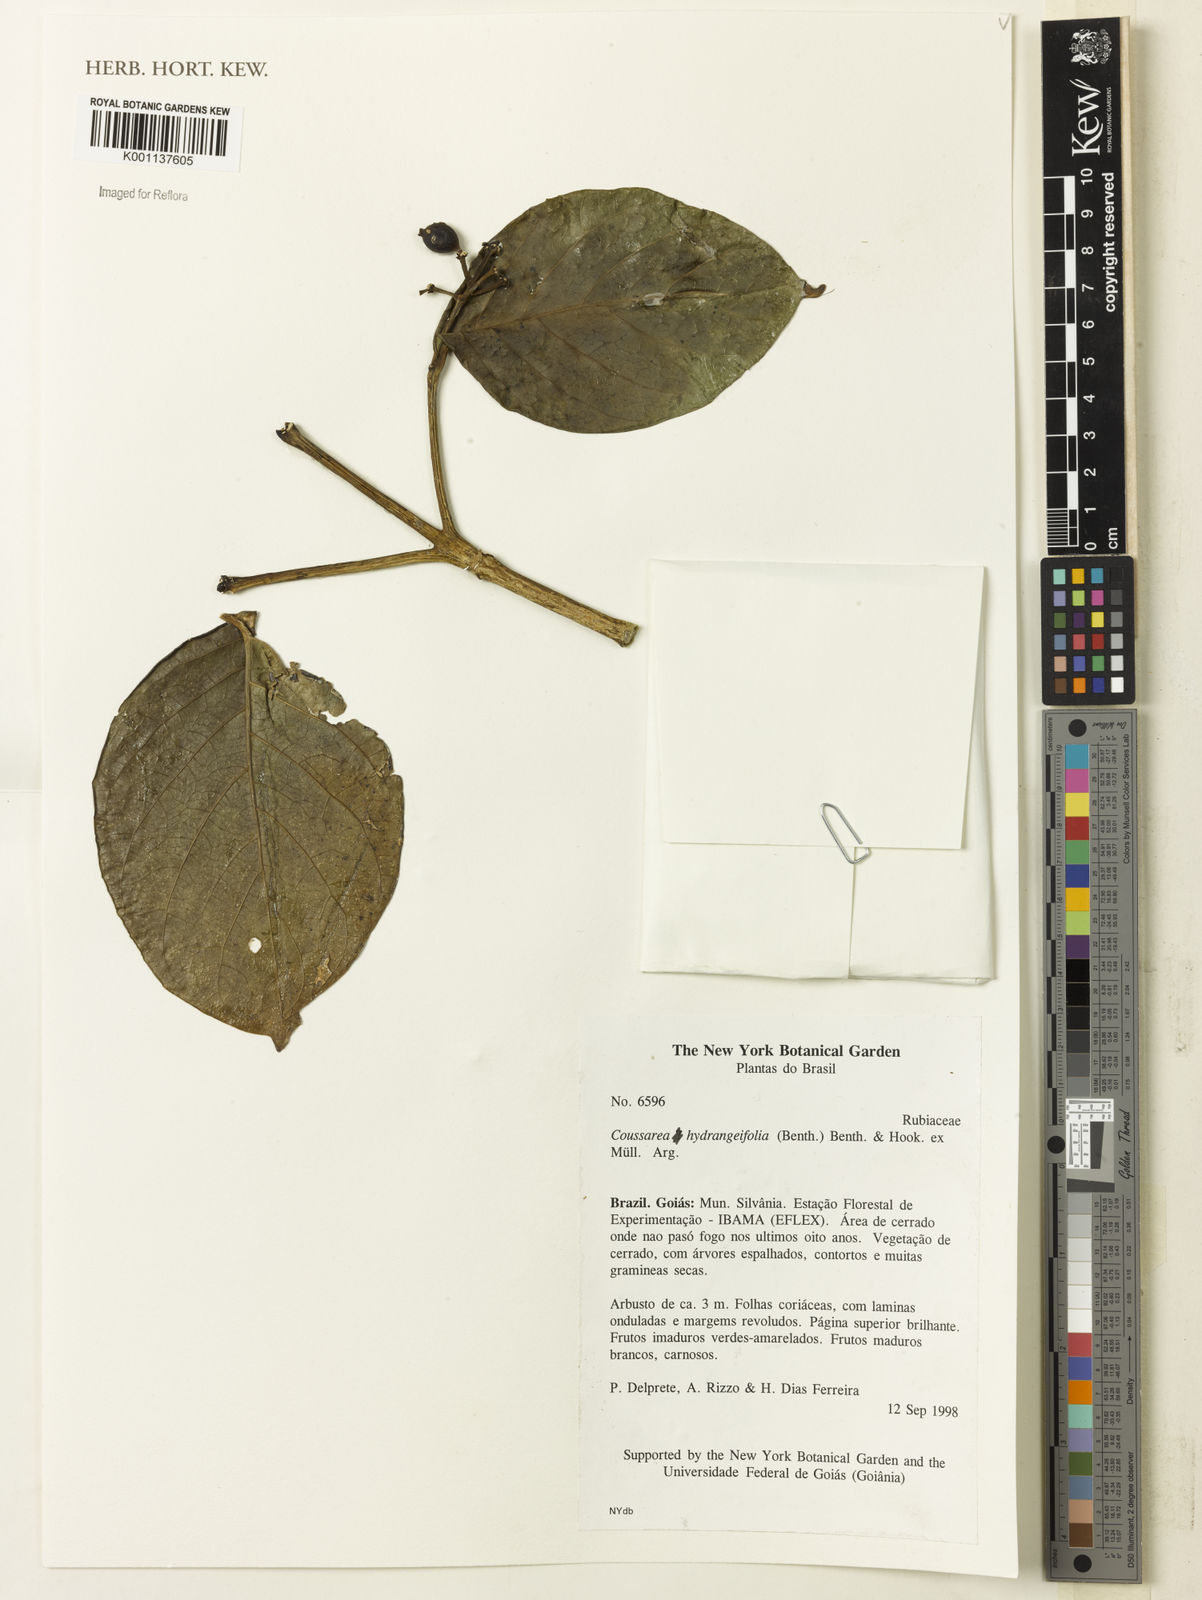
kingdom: Plantae
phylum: Tracheophyta
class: Magnoliopsida
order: Gentianales
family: Rubiaceae
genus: Coussarea
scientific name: Coussarea
